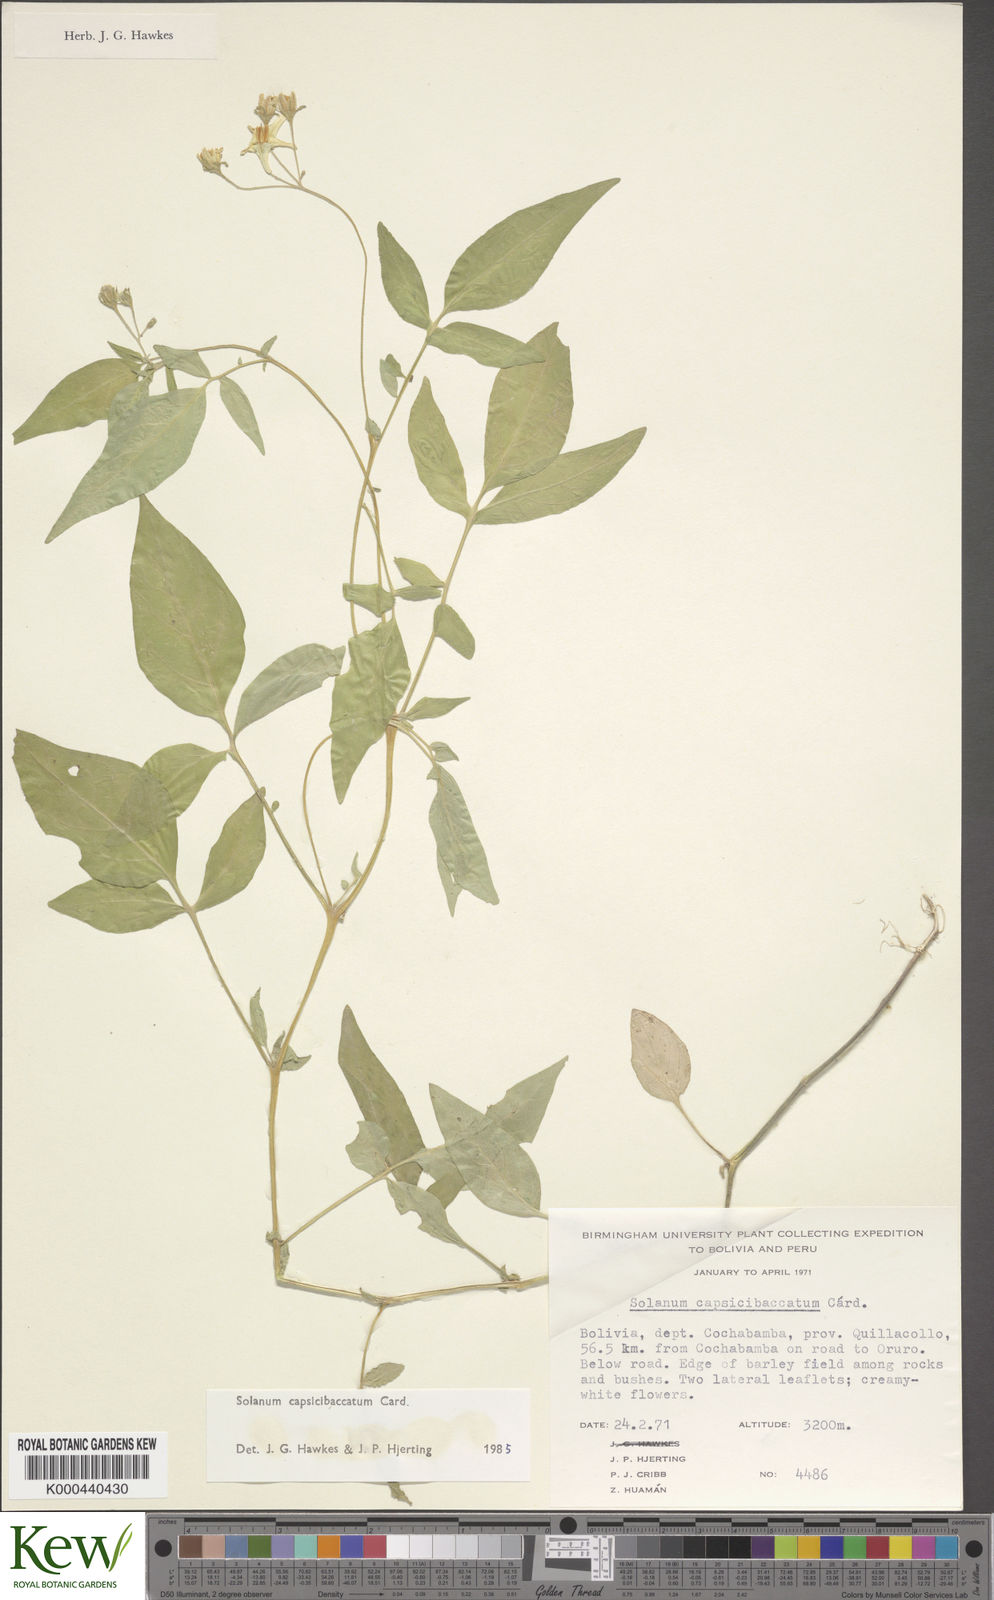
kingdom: Plantae
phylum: Tracheophyta
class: Magnoliopsida
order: Solanales
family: Solanaceae
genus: Solanum
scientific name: Solanum stipuloideum
